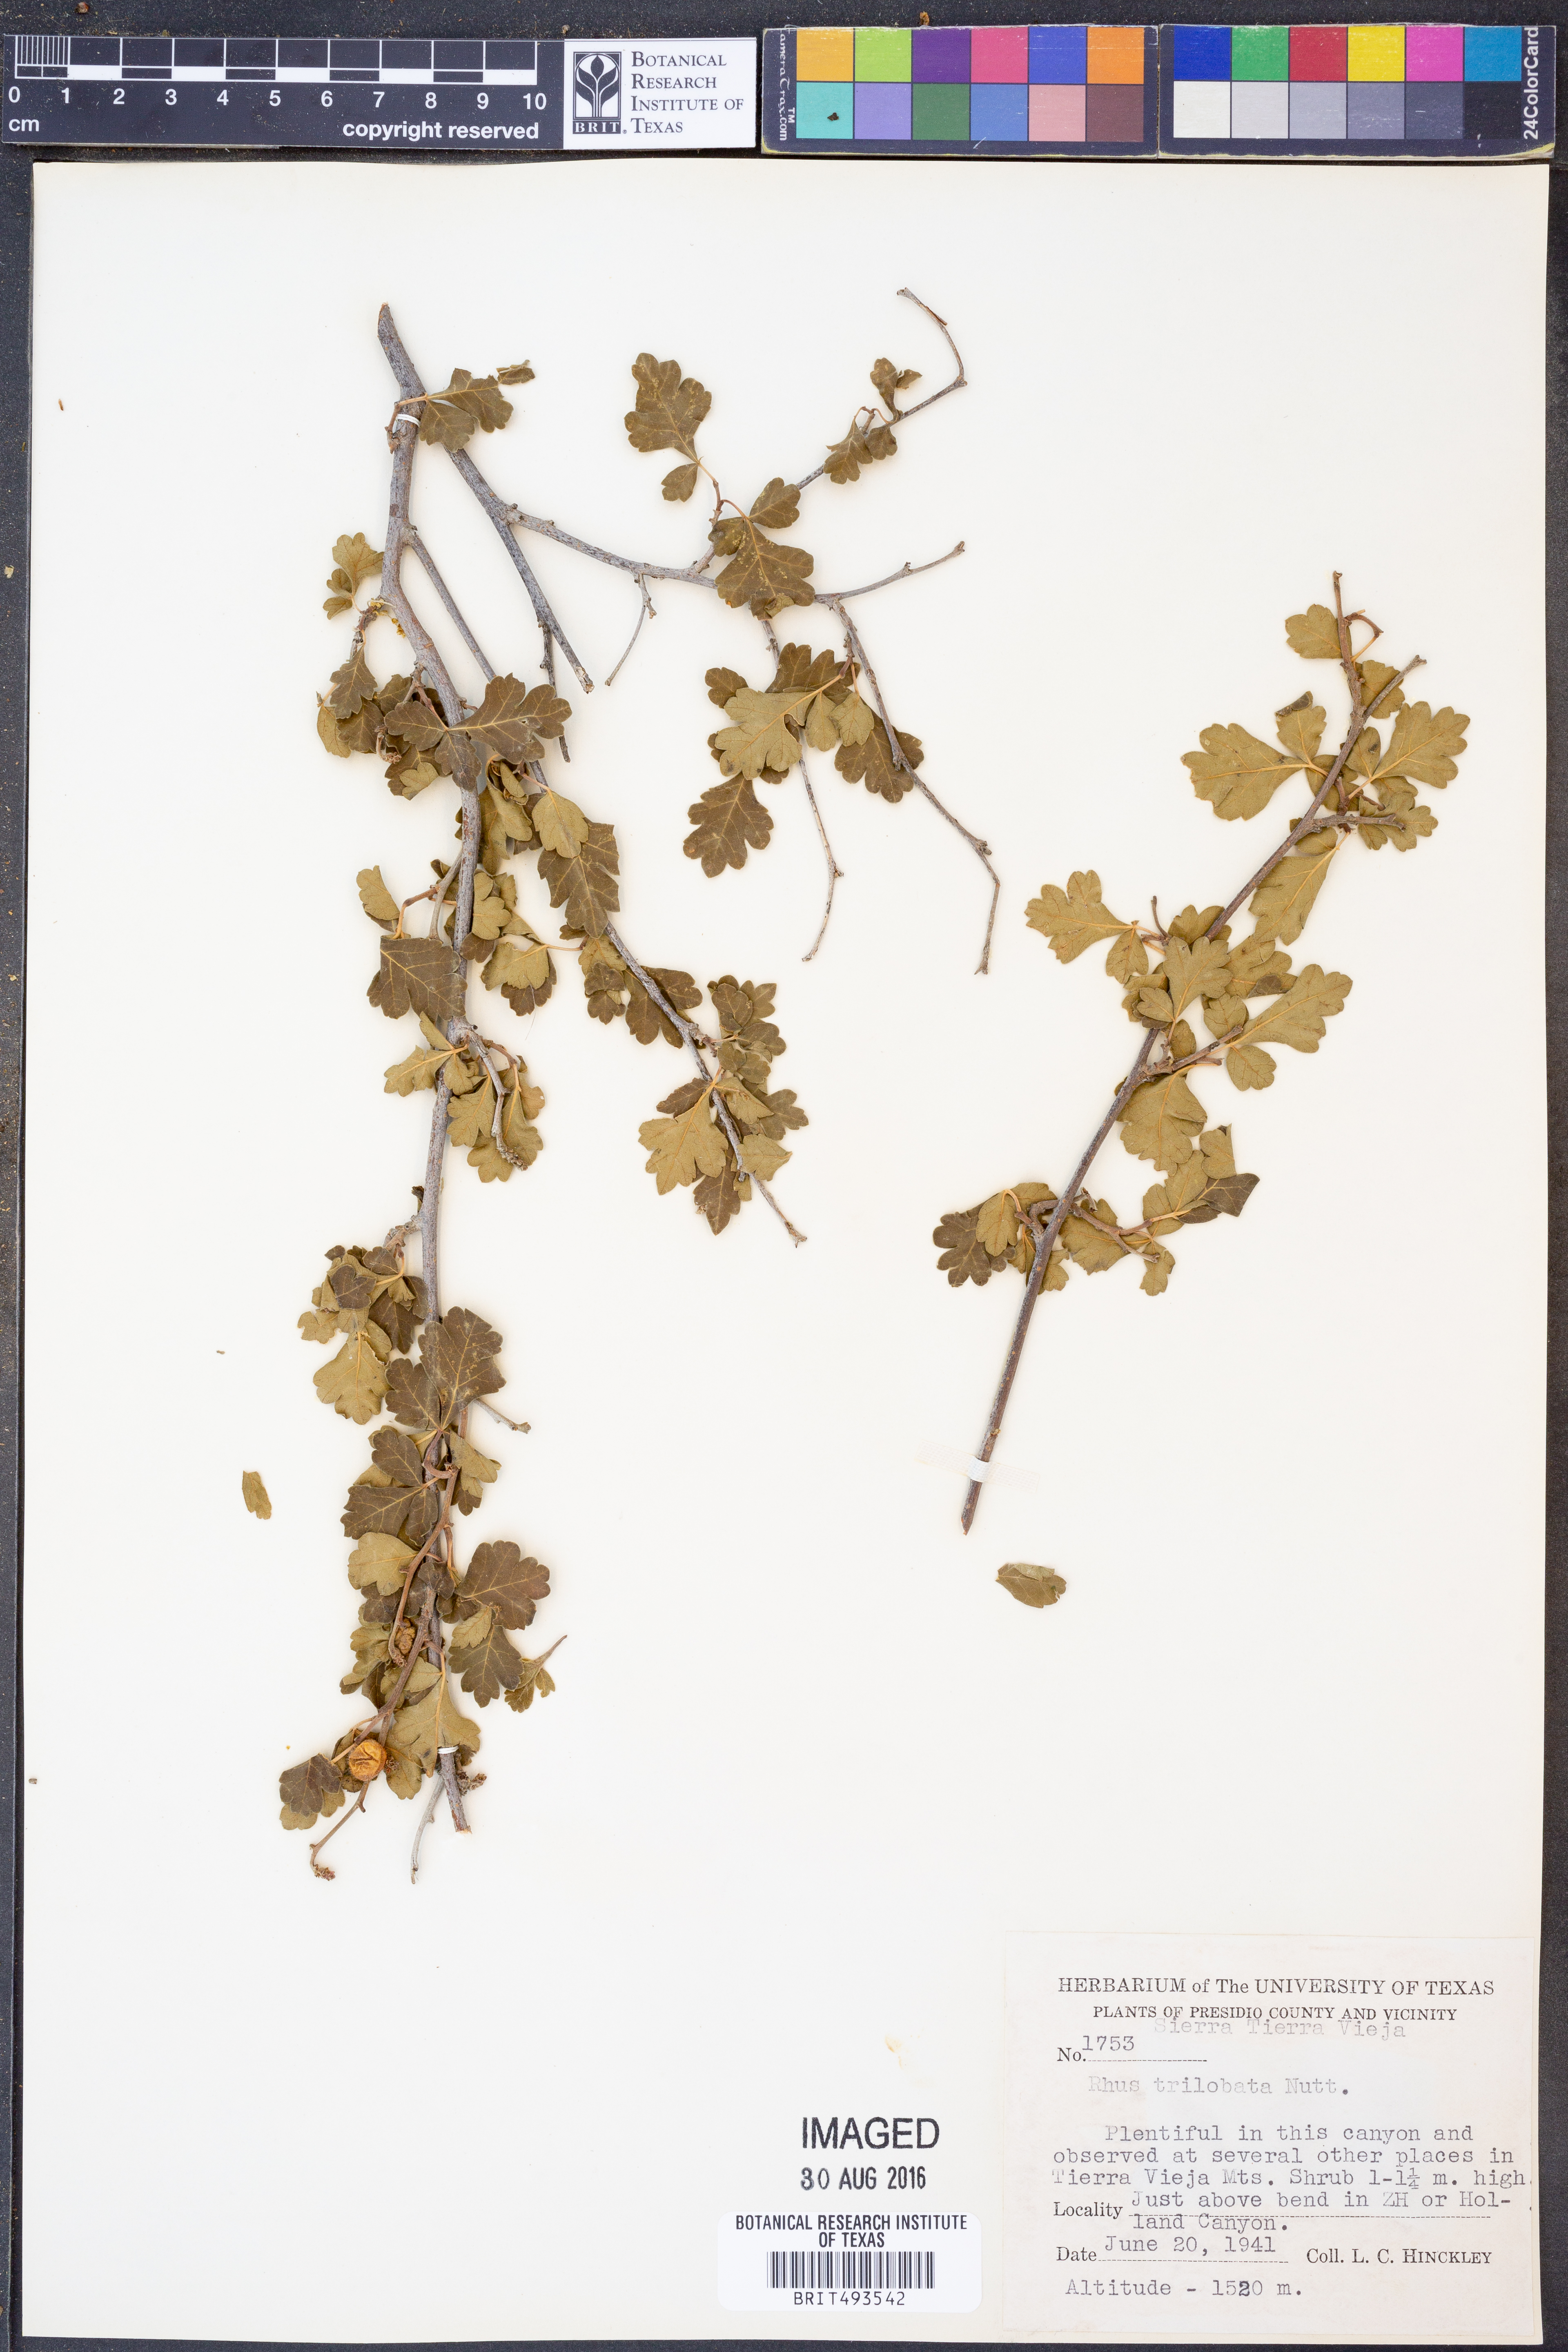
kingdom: Plantae
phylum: Tracheophyta
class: Magnoliopsida
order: Sapindales
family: Anacardiaceae
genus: Rhus
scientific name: Rhus trilobata
